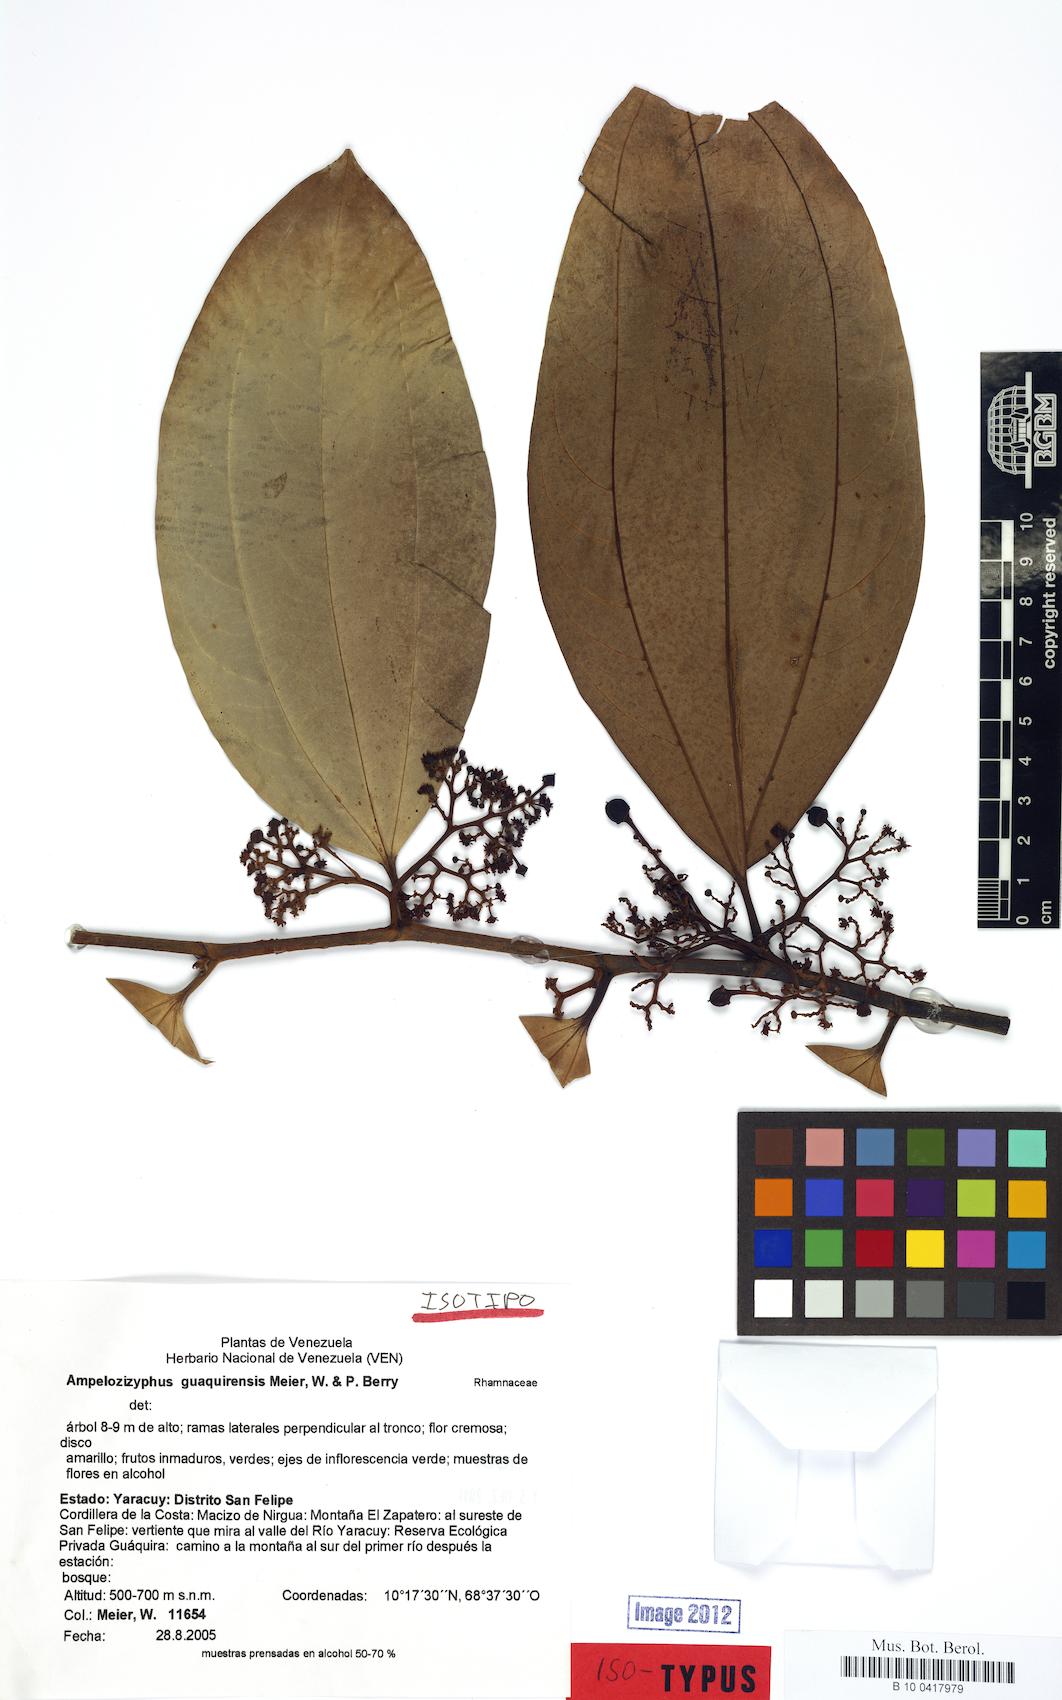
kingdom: Plantae
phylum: Tracheophyta
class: Magnoliopsida
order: Rosales
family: Rhamnaceae
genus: Ampelozizyphus
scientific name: Ampelozizyphus guaquirensis
